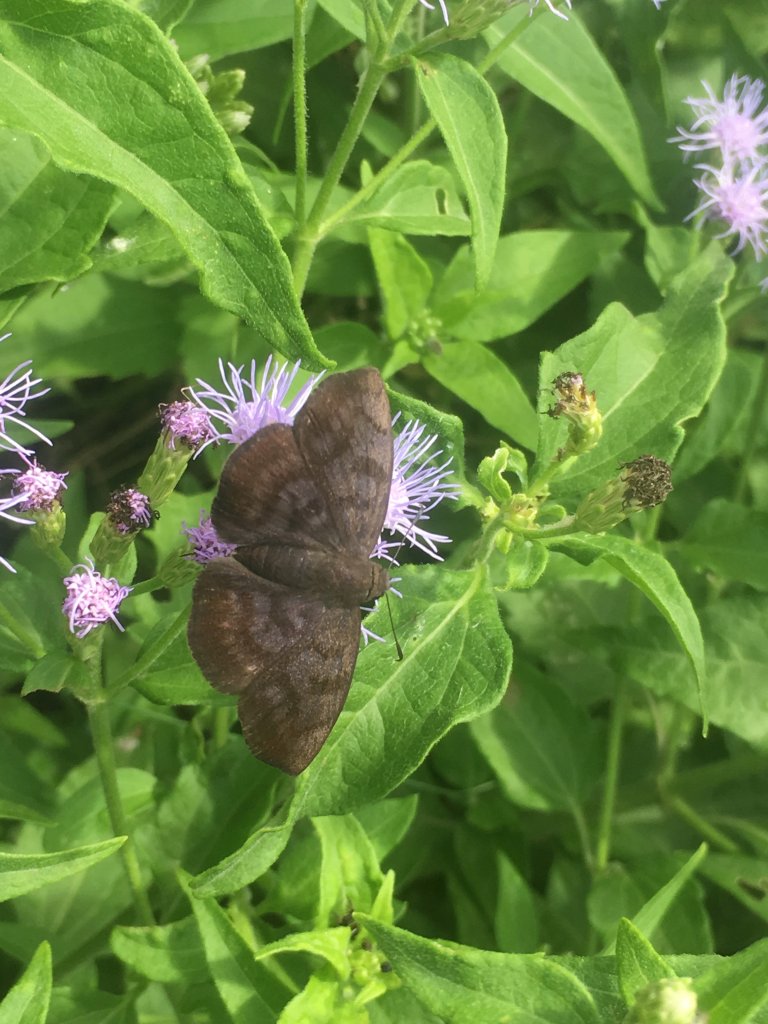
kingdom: Animalia
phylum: Arthropoda
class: Insecta
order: Lepidoptera
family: Hesperiidae
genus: Pellicia
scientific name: Pellicia costimacula
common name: Glazed Pellicia
